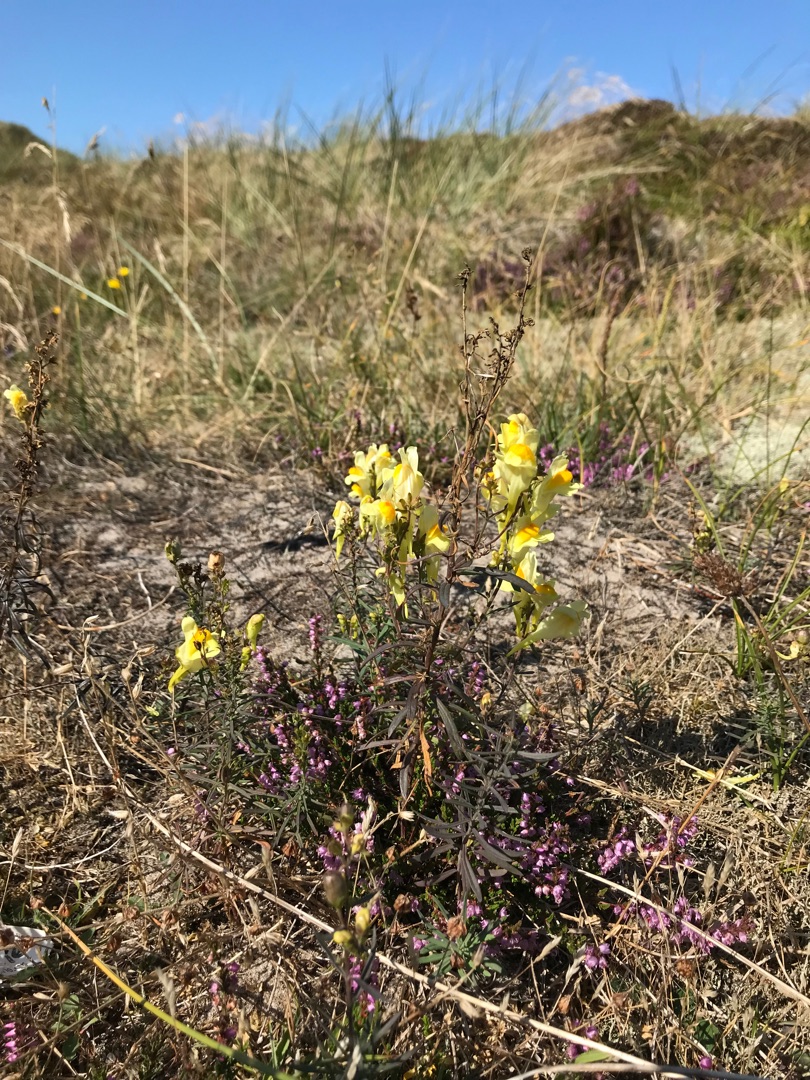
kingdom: Plantae
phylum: Tracheophyta
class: Magnoliopsida
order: Lamiales
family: Plantaginaceae
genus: Linaria
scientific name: Linaria vulgaris
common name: Almindelig torskemund
